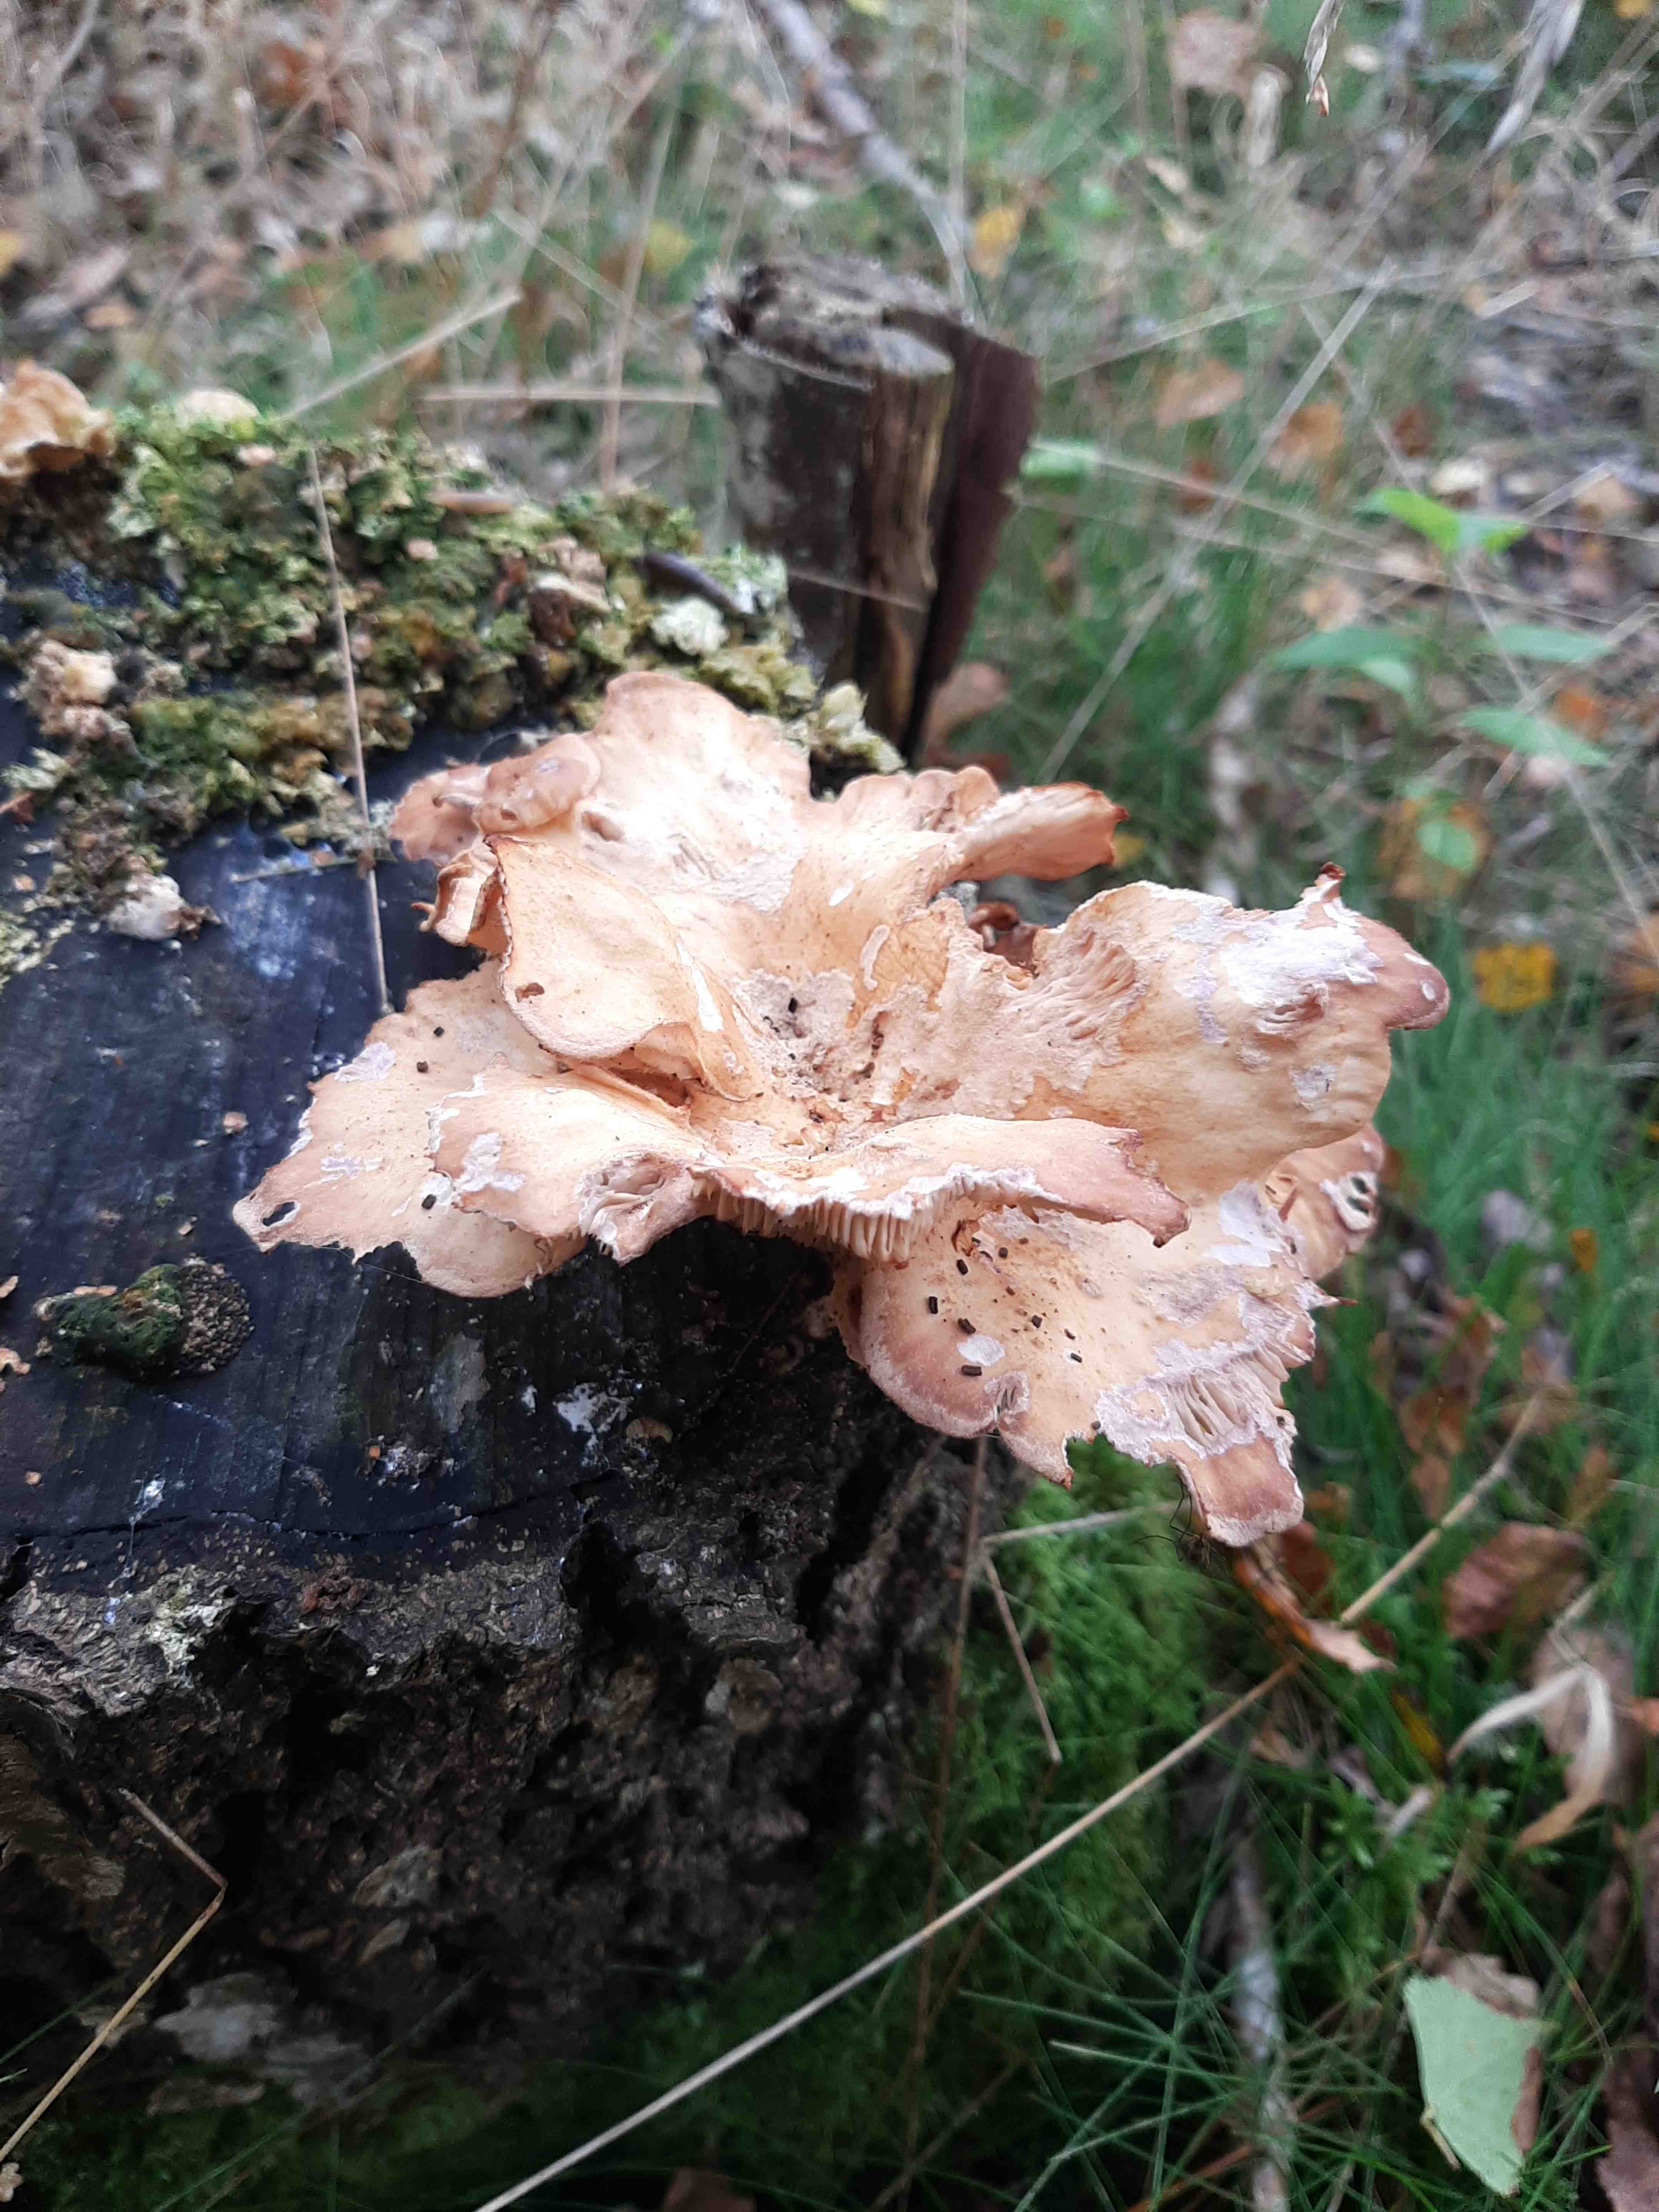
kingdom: Fungi
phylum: Basidiomycota
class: Agaricomycetes
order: Polyporales
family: Panaceae
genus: Panus
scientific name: Panus conchatus
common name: filtstokket læderhat
